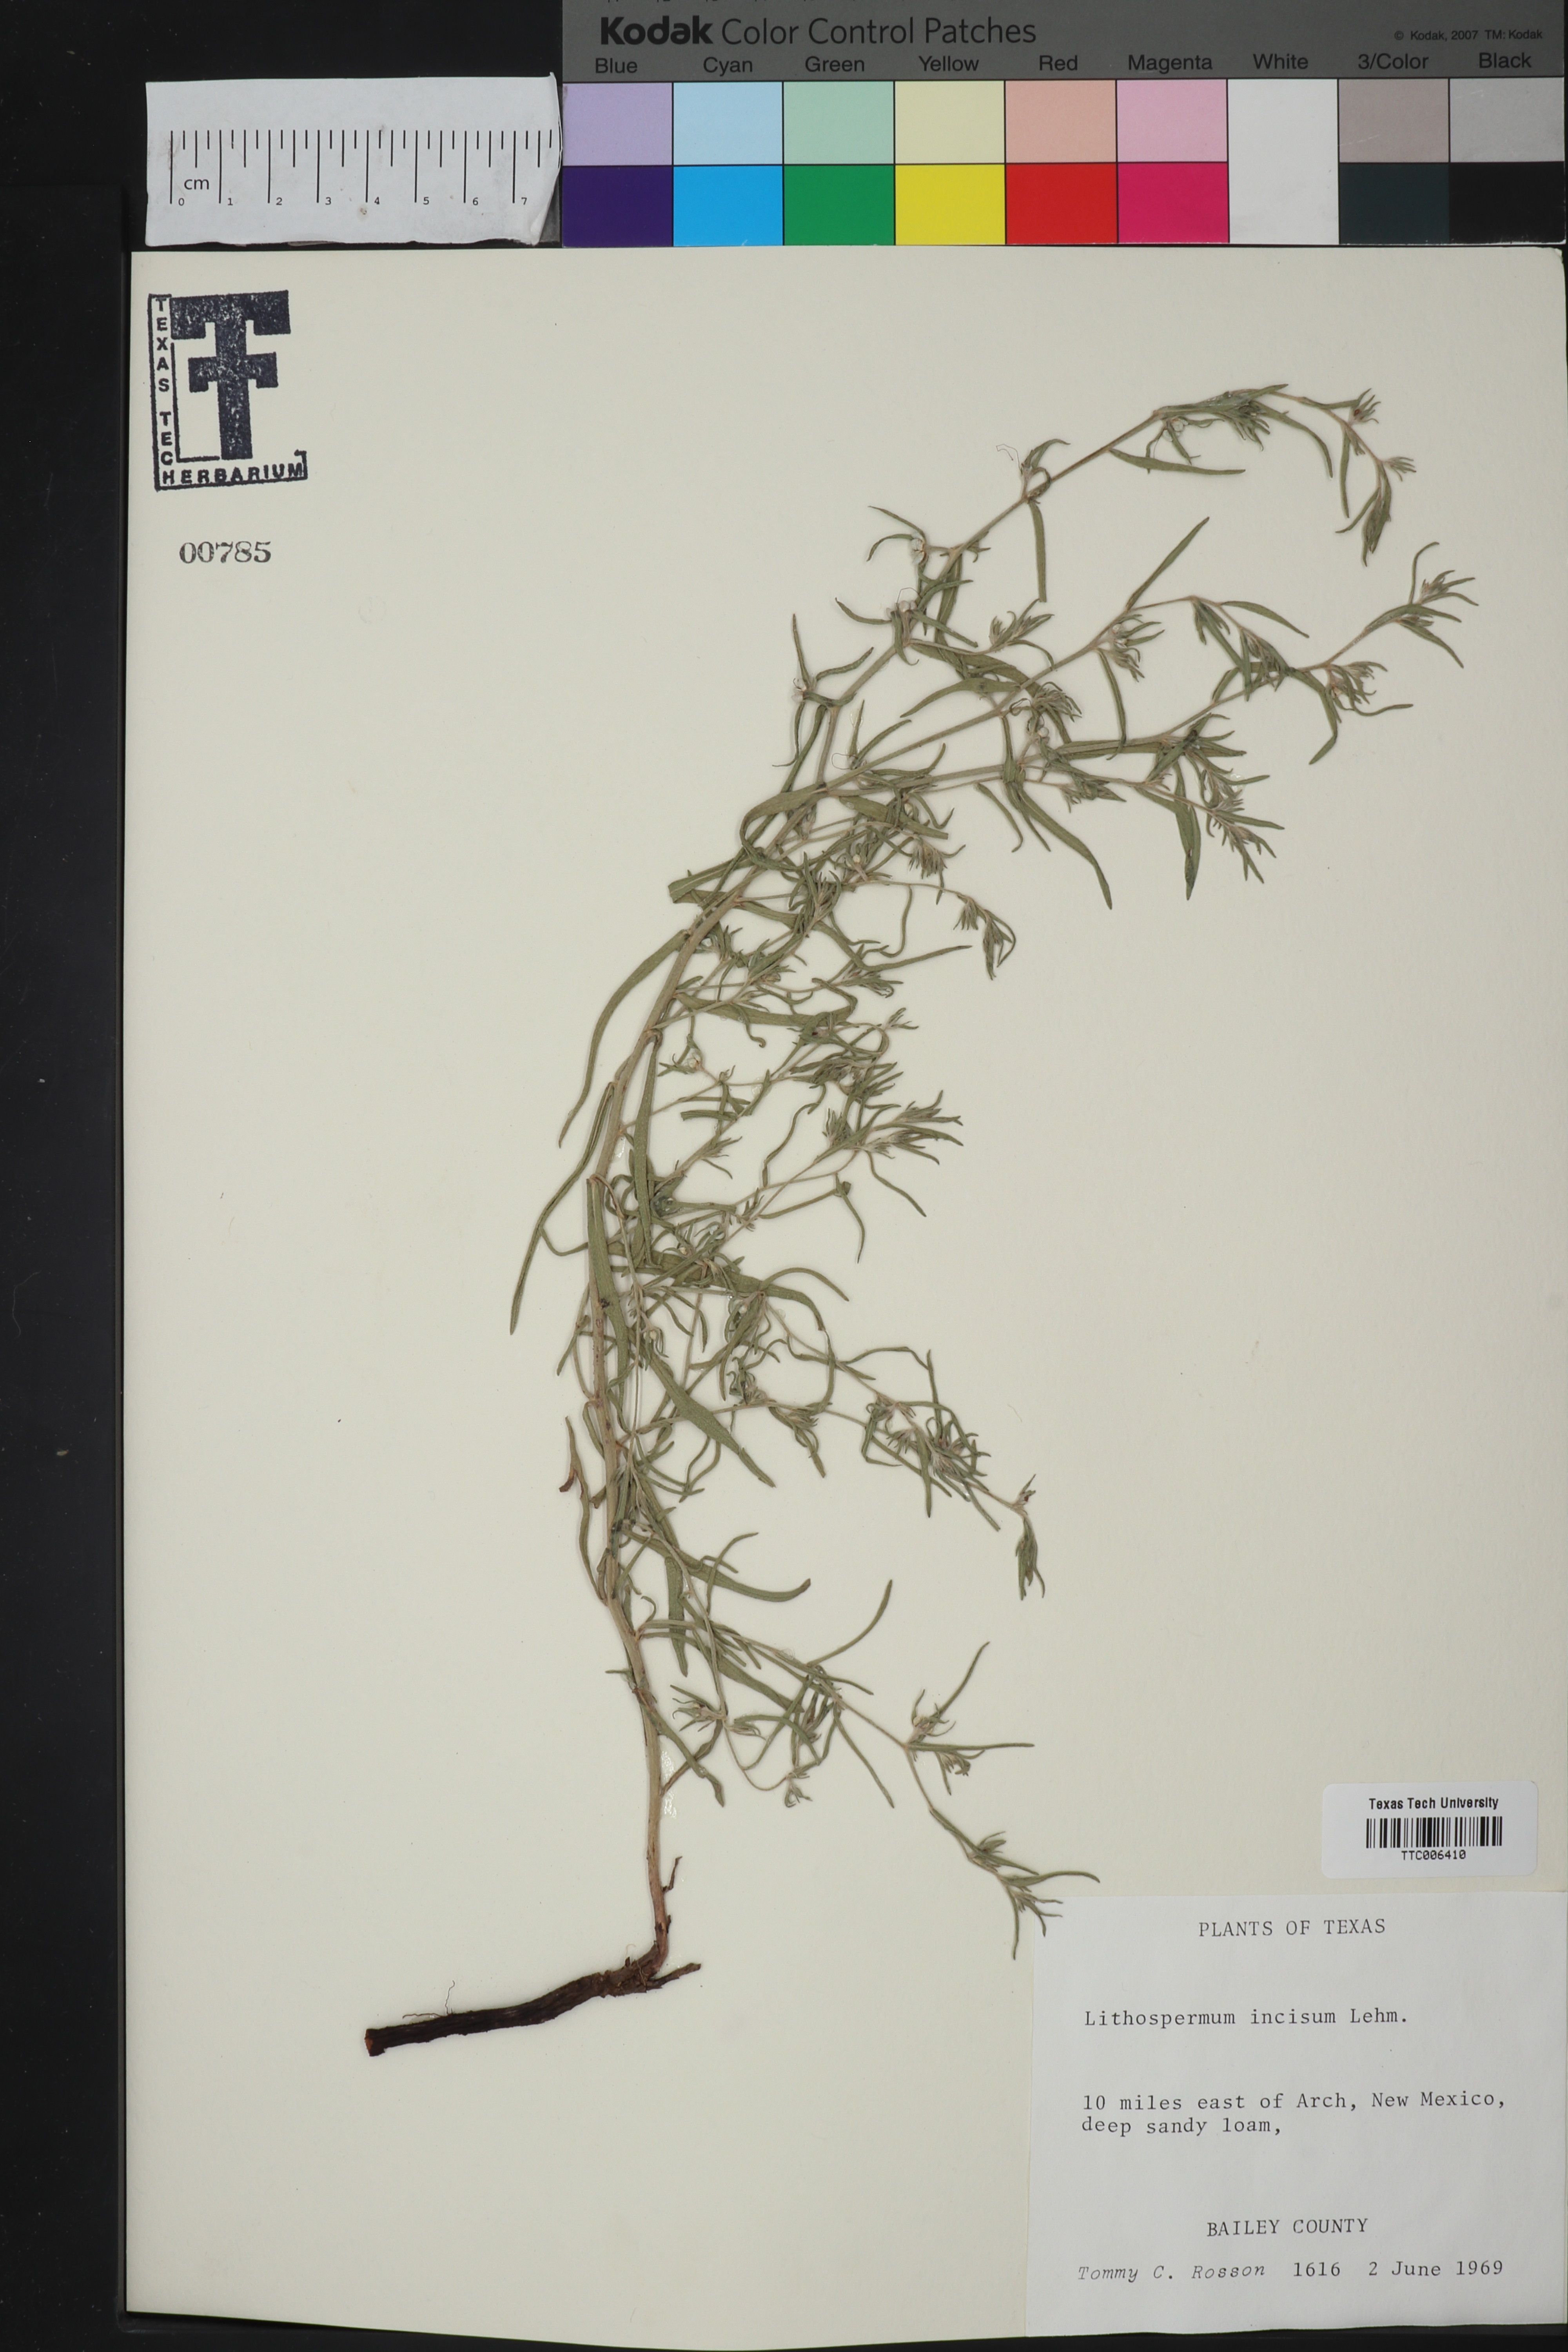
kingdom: Plantae
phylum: Tracheophyta
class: Magnoliopsida
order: Boraginales
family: Boraginaceae
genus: Lithospermum
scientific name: Lithospermum incisum
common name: Fringed gromwell
